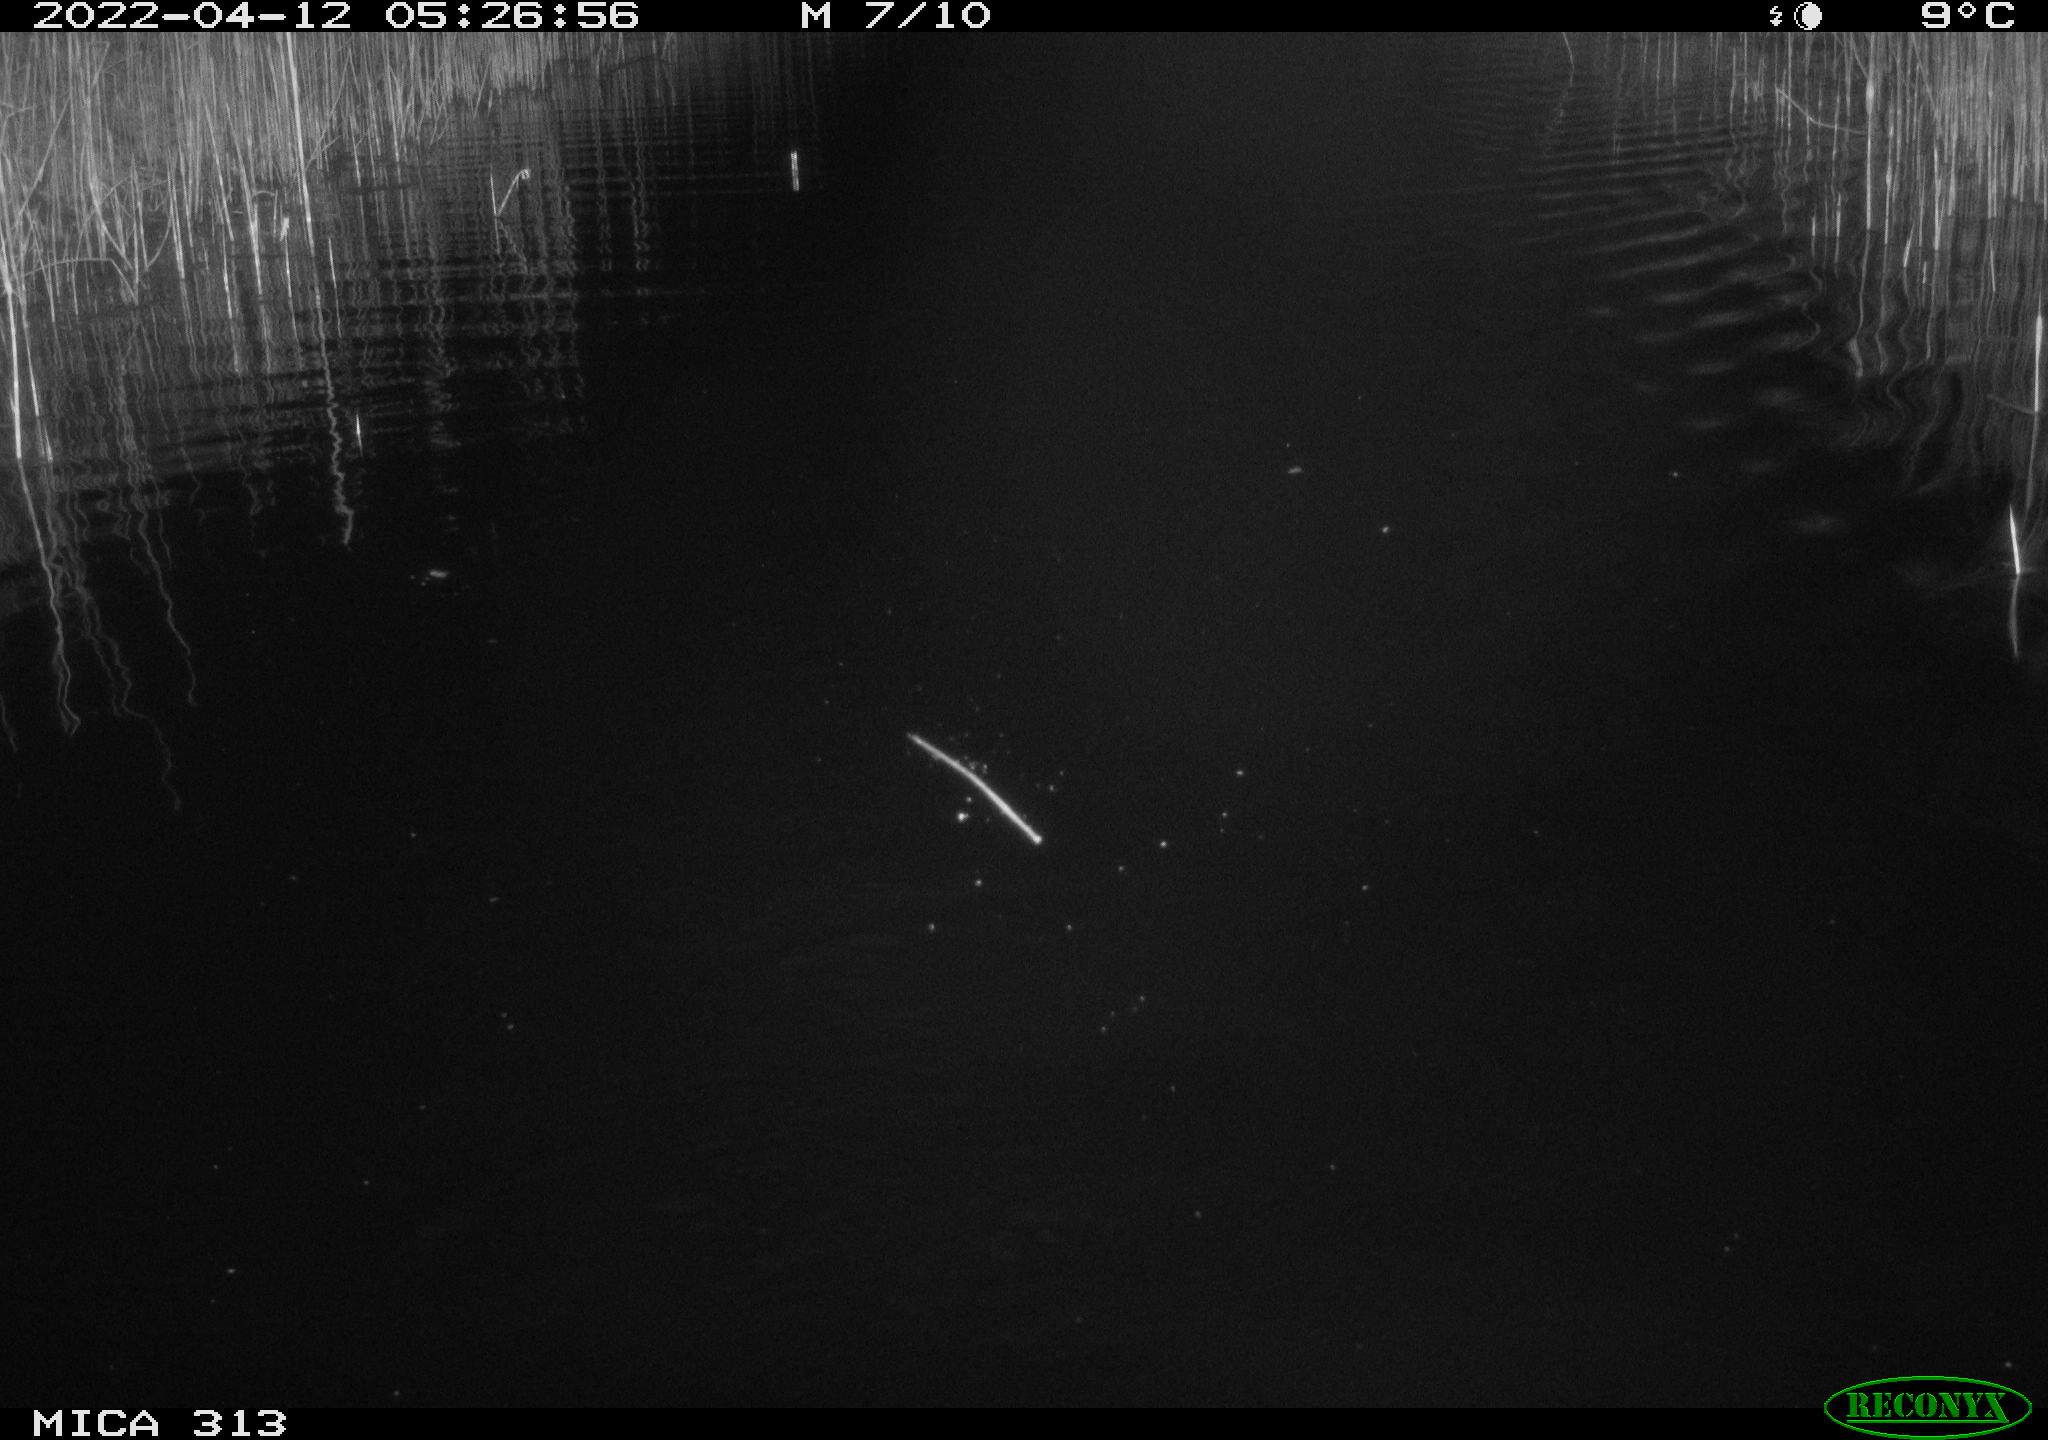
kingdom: Animalia
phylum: Chordata
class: Mammalia
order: Rodentia
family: Cricetidae
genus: Ondatra
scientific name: Ondatra zibethicus
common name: Muskrat
